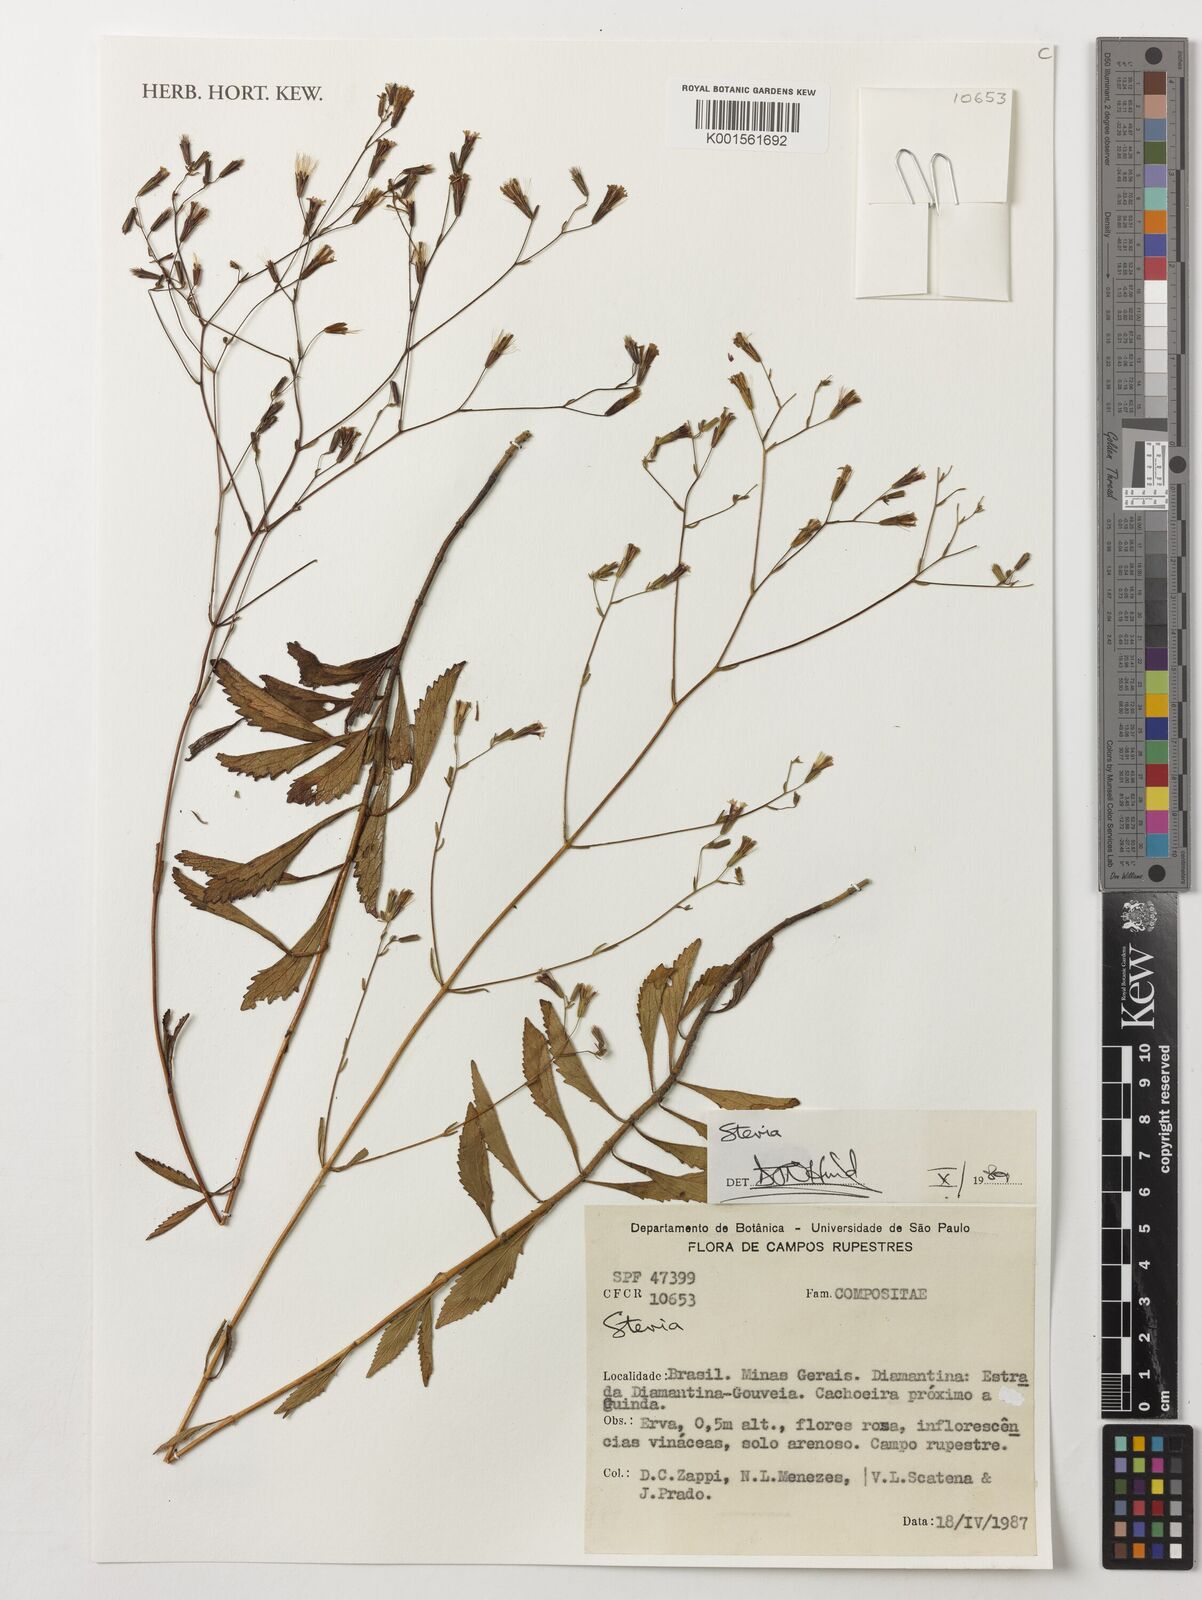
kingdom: Plantae
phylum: Tracheophyta
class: Magnoliopsida
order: Asterales
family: Asteraceae
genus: Stevia
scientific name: Stevia
